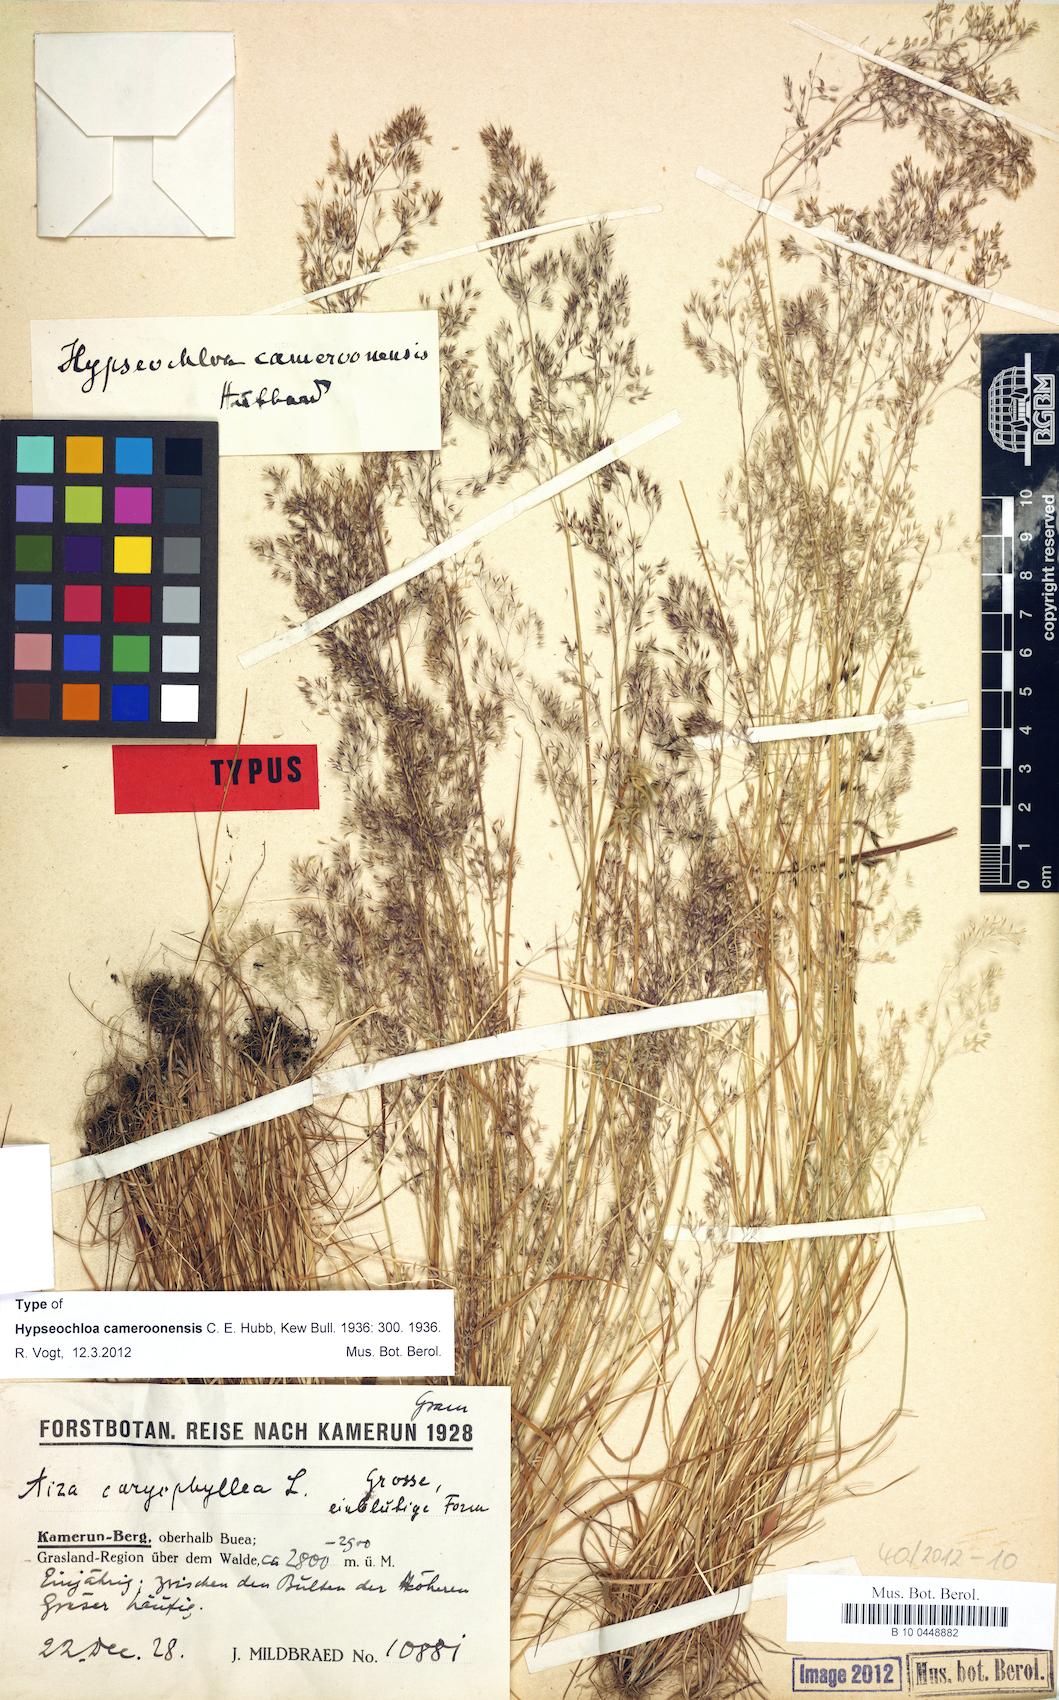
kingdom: Plantae
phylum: Tracheophyta
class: Liliopsida
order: Poales
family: Poaceae
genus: Hypseochloa
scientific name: Hypseochloa cameroonensis
